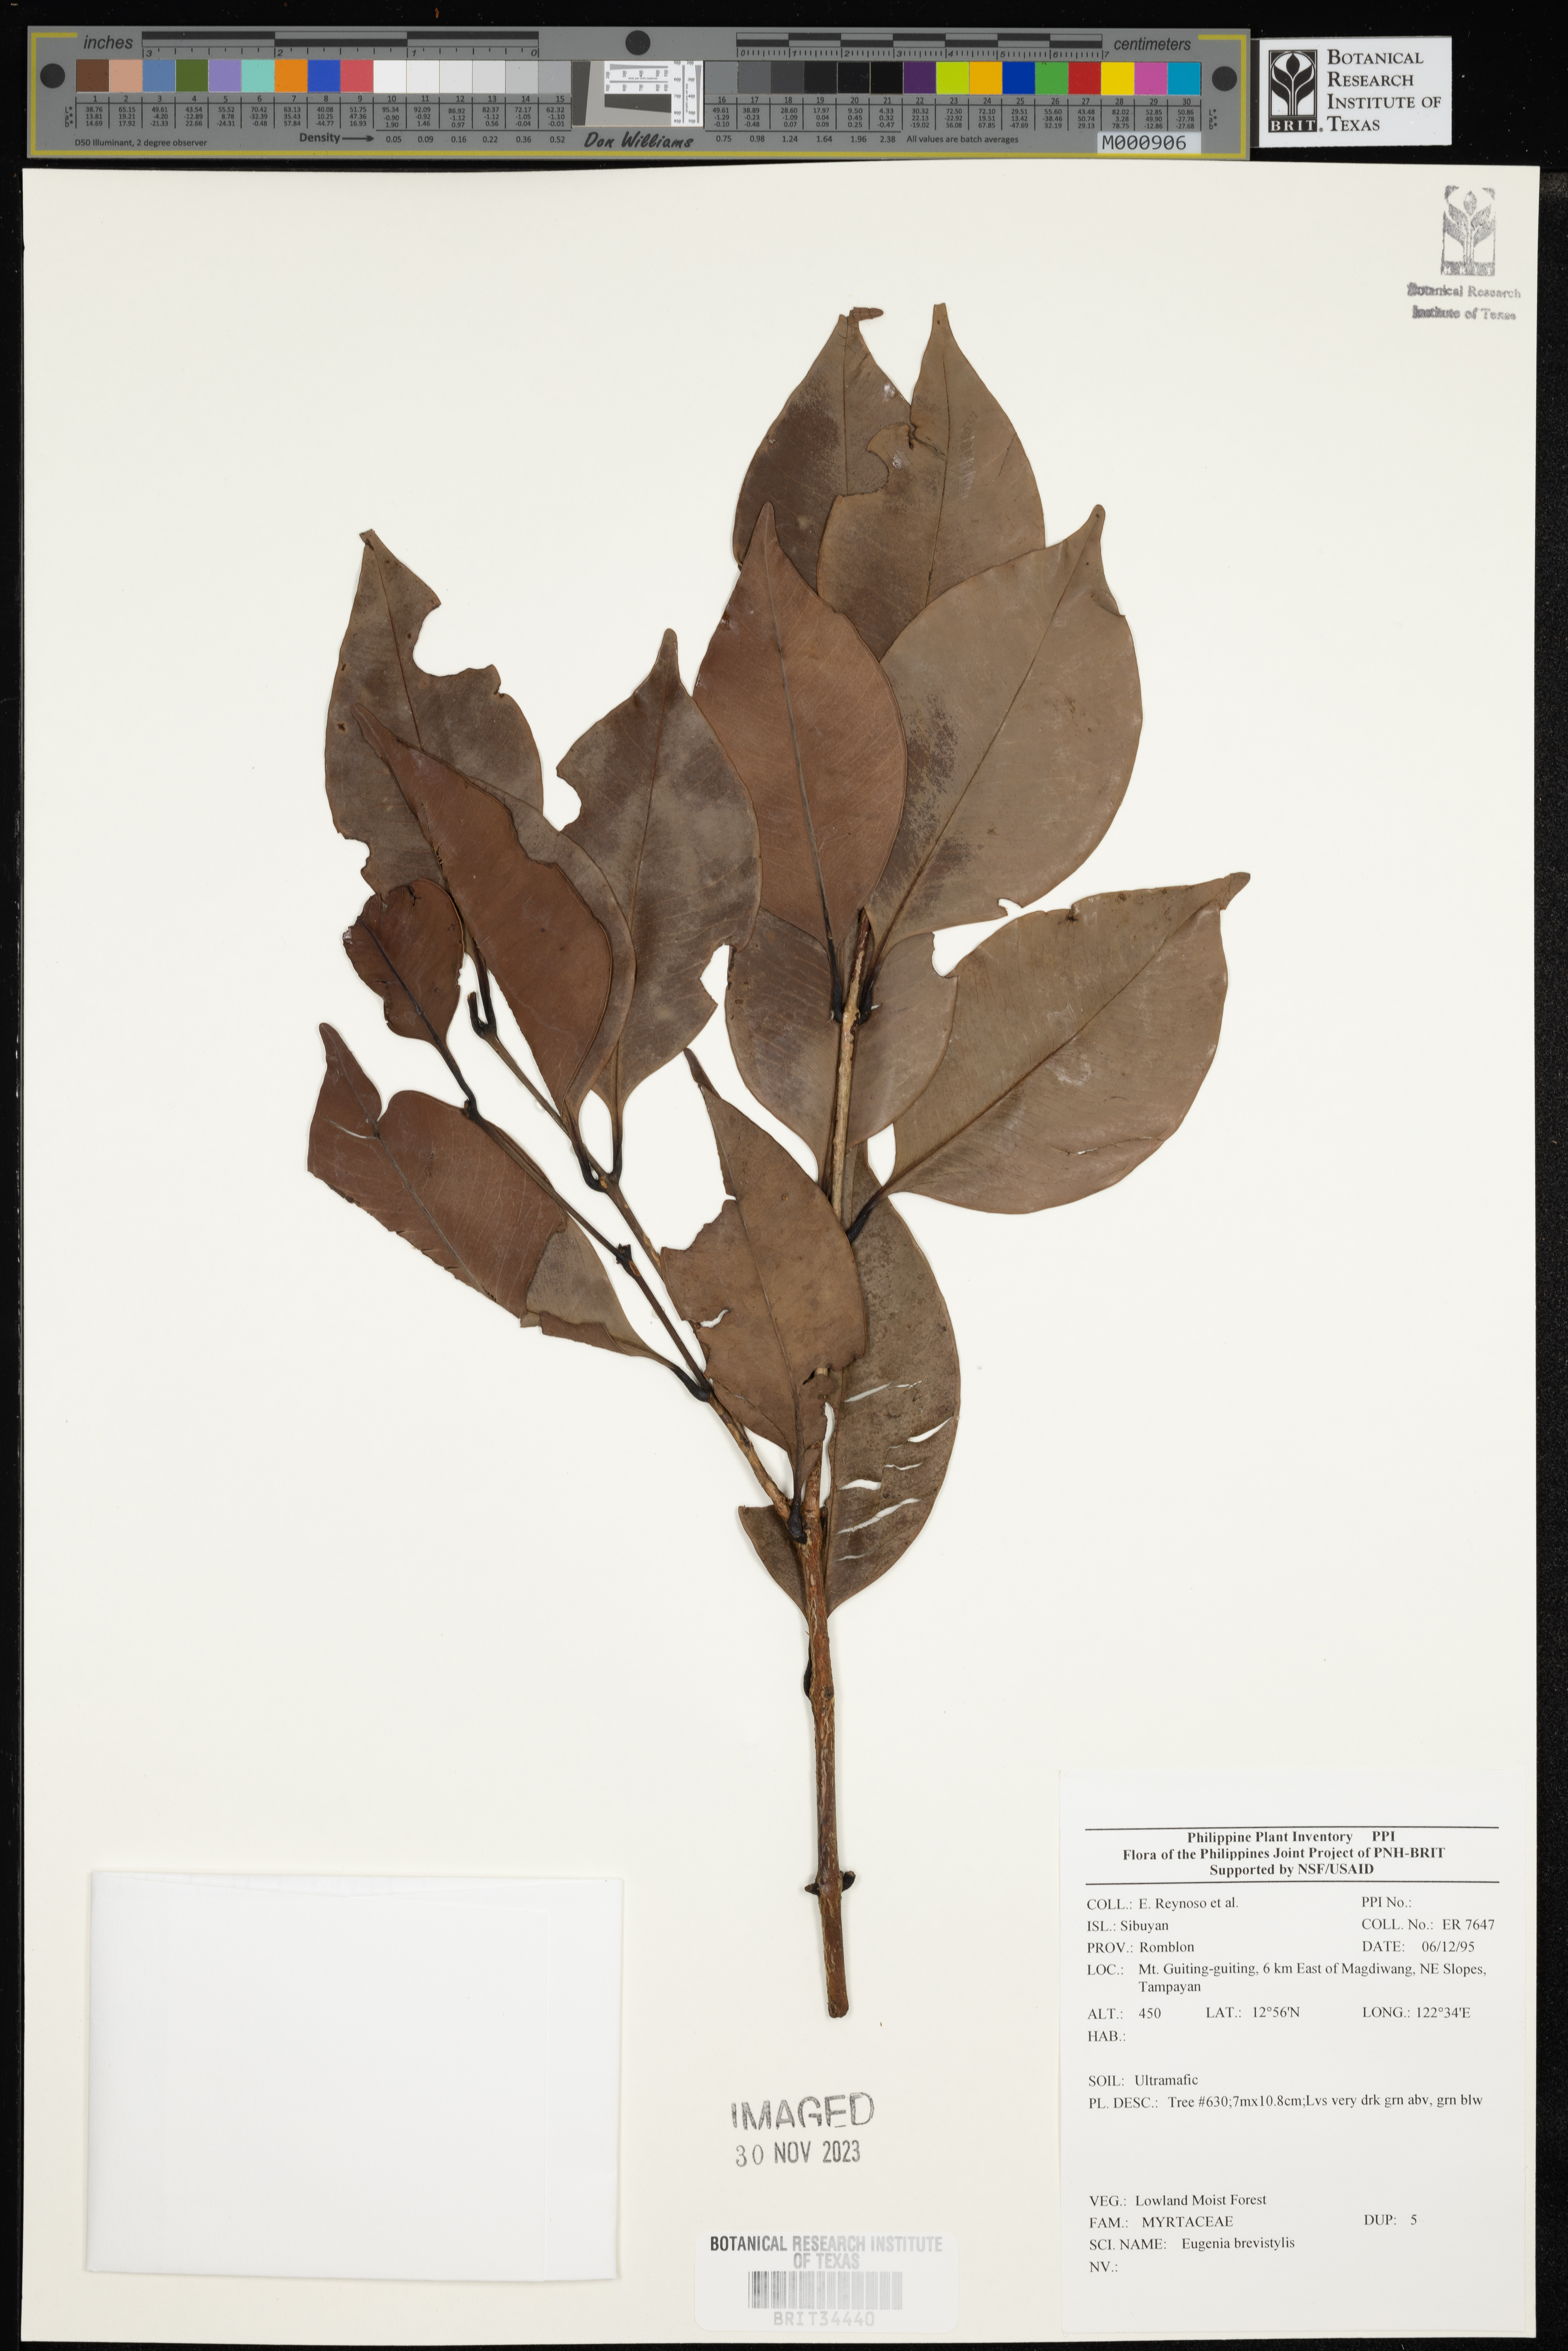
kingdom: Plantae
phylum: Tracheophyta
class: Magnoliopsida
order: Myrtales
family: Myrtaceae
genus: Eugenia
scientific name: Eugenia
